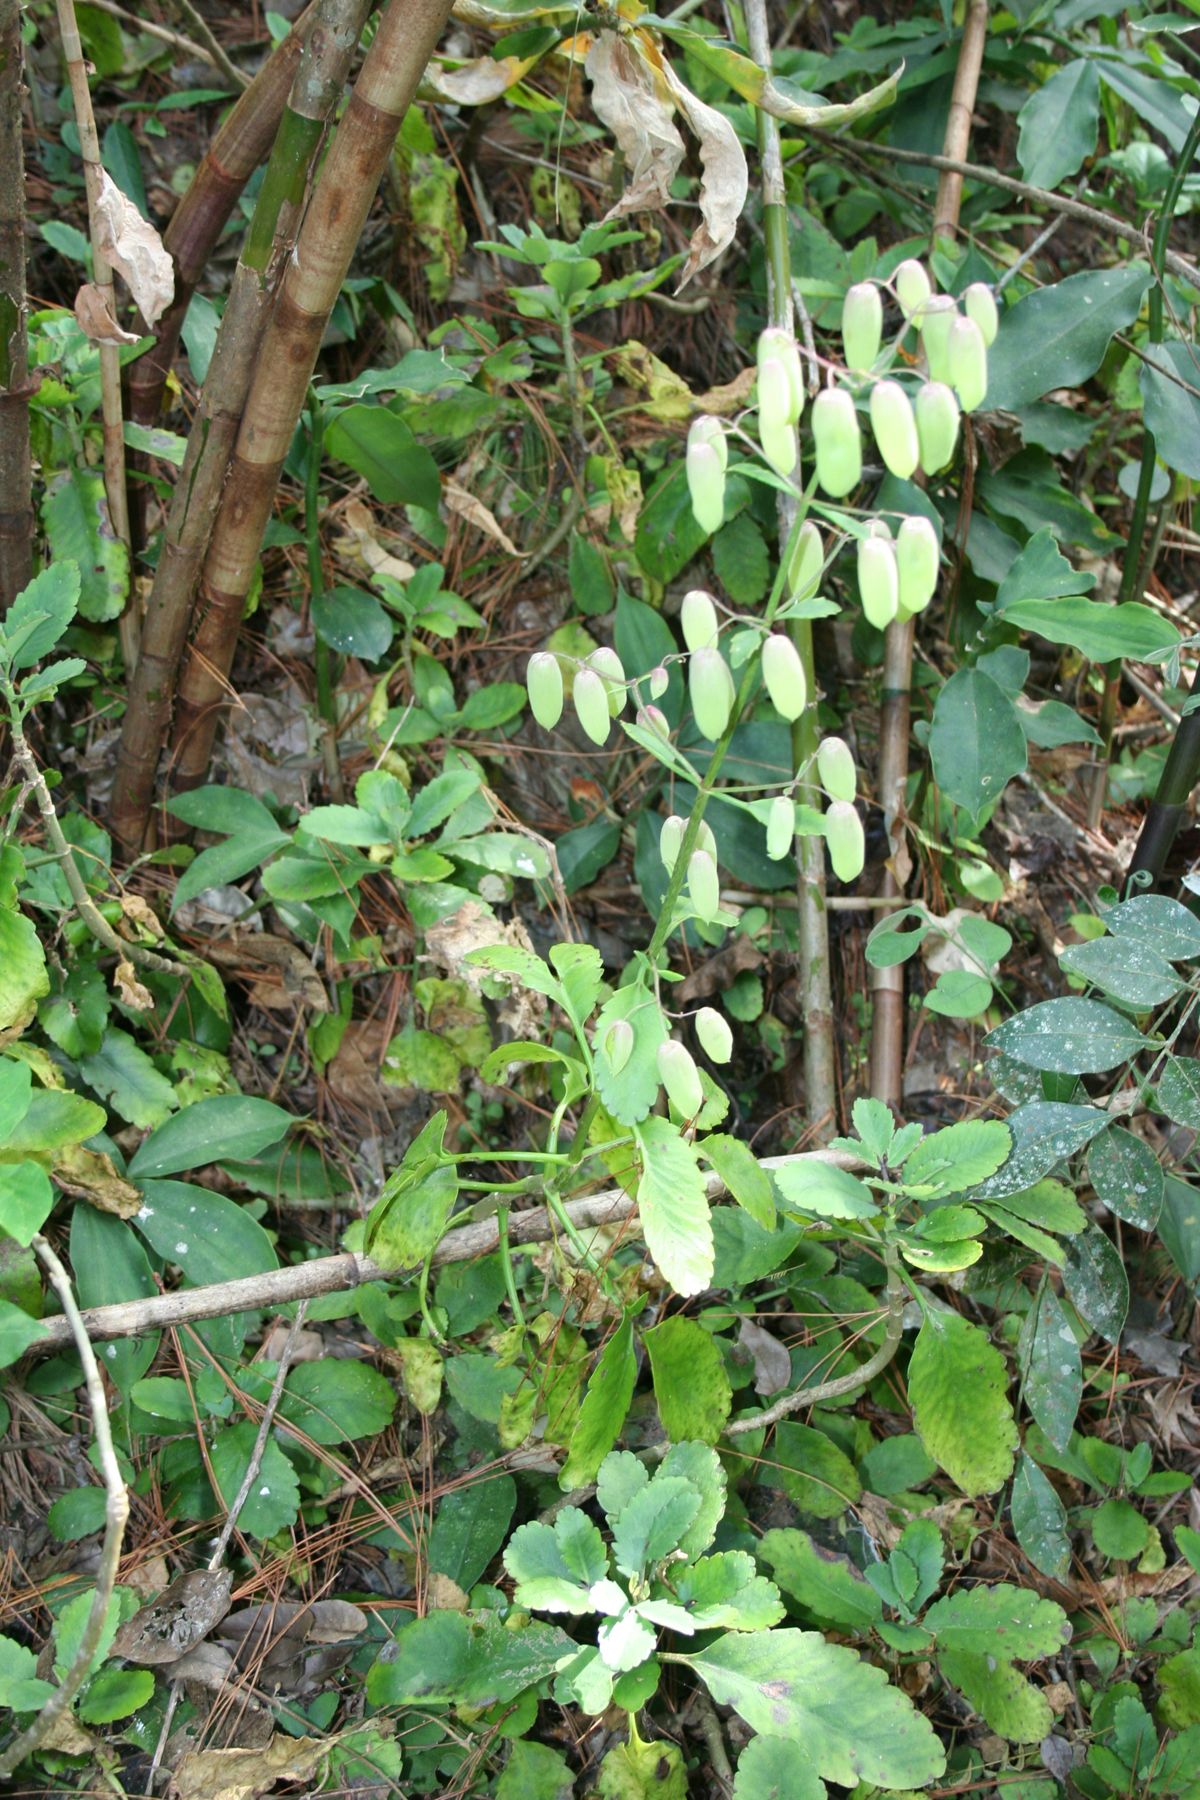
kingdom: Plantae
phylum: Tracheophyta
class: Magnoliopsida
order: Saxifragales
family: Crassulaceae
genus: Kalanchoe
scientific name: Kalanchoe pinnata
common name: Cathedral bells
